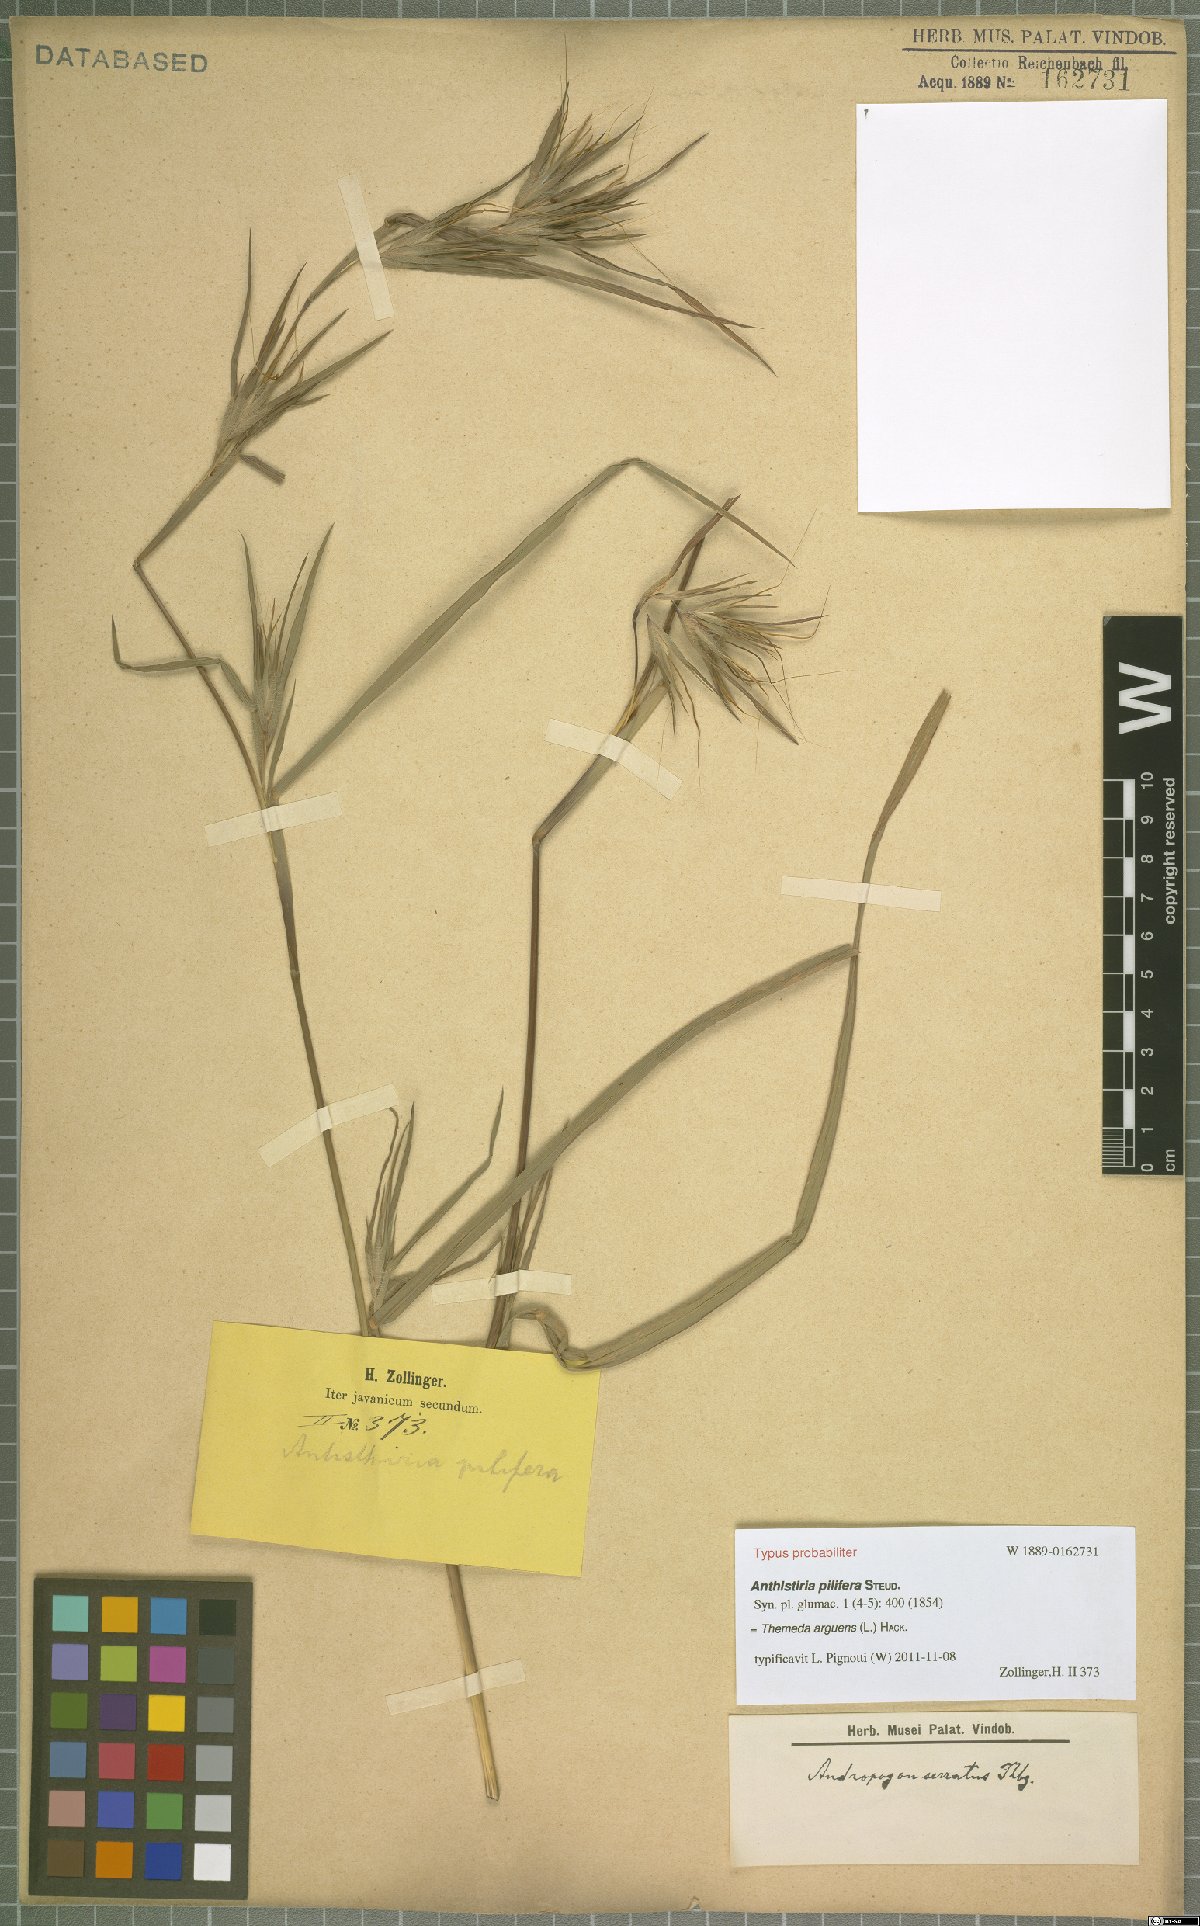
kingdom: Plantae
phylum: Tracheophyta
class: Liliopsida
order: Poales
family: Poaceae
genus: Themeda
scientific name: Themeda arguens
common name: Christmas grass
